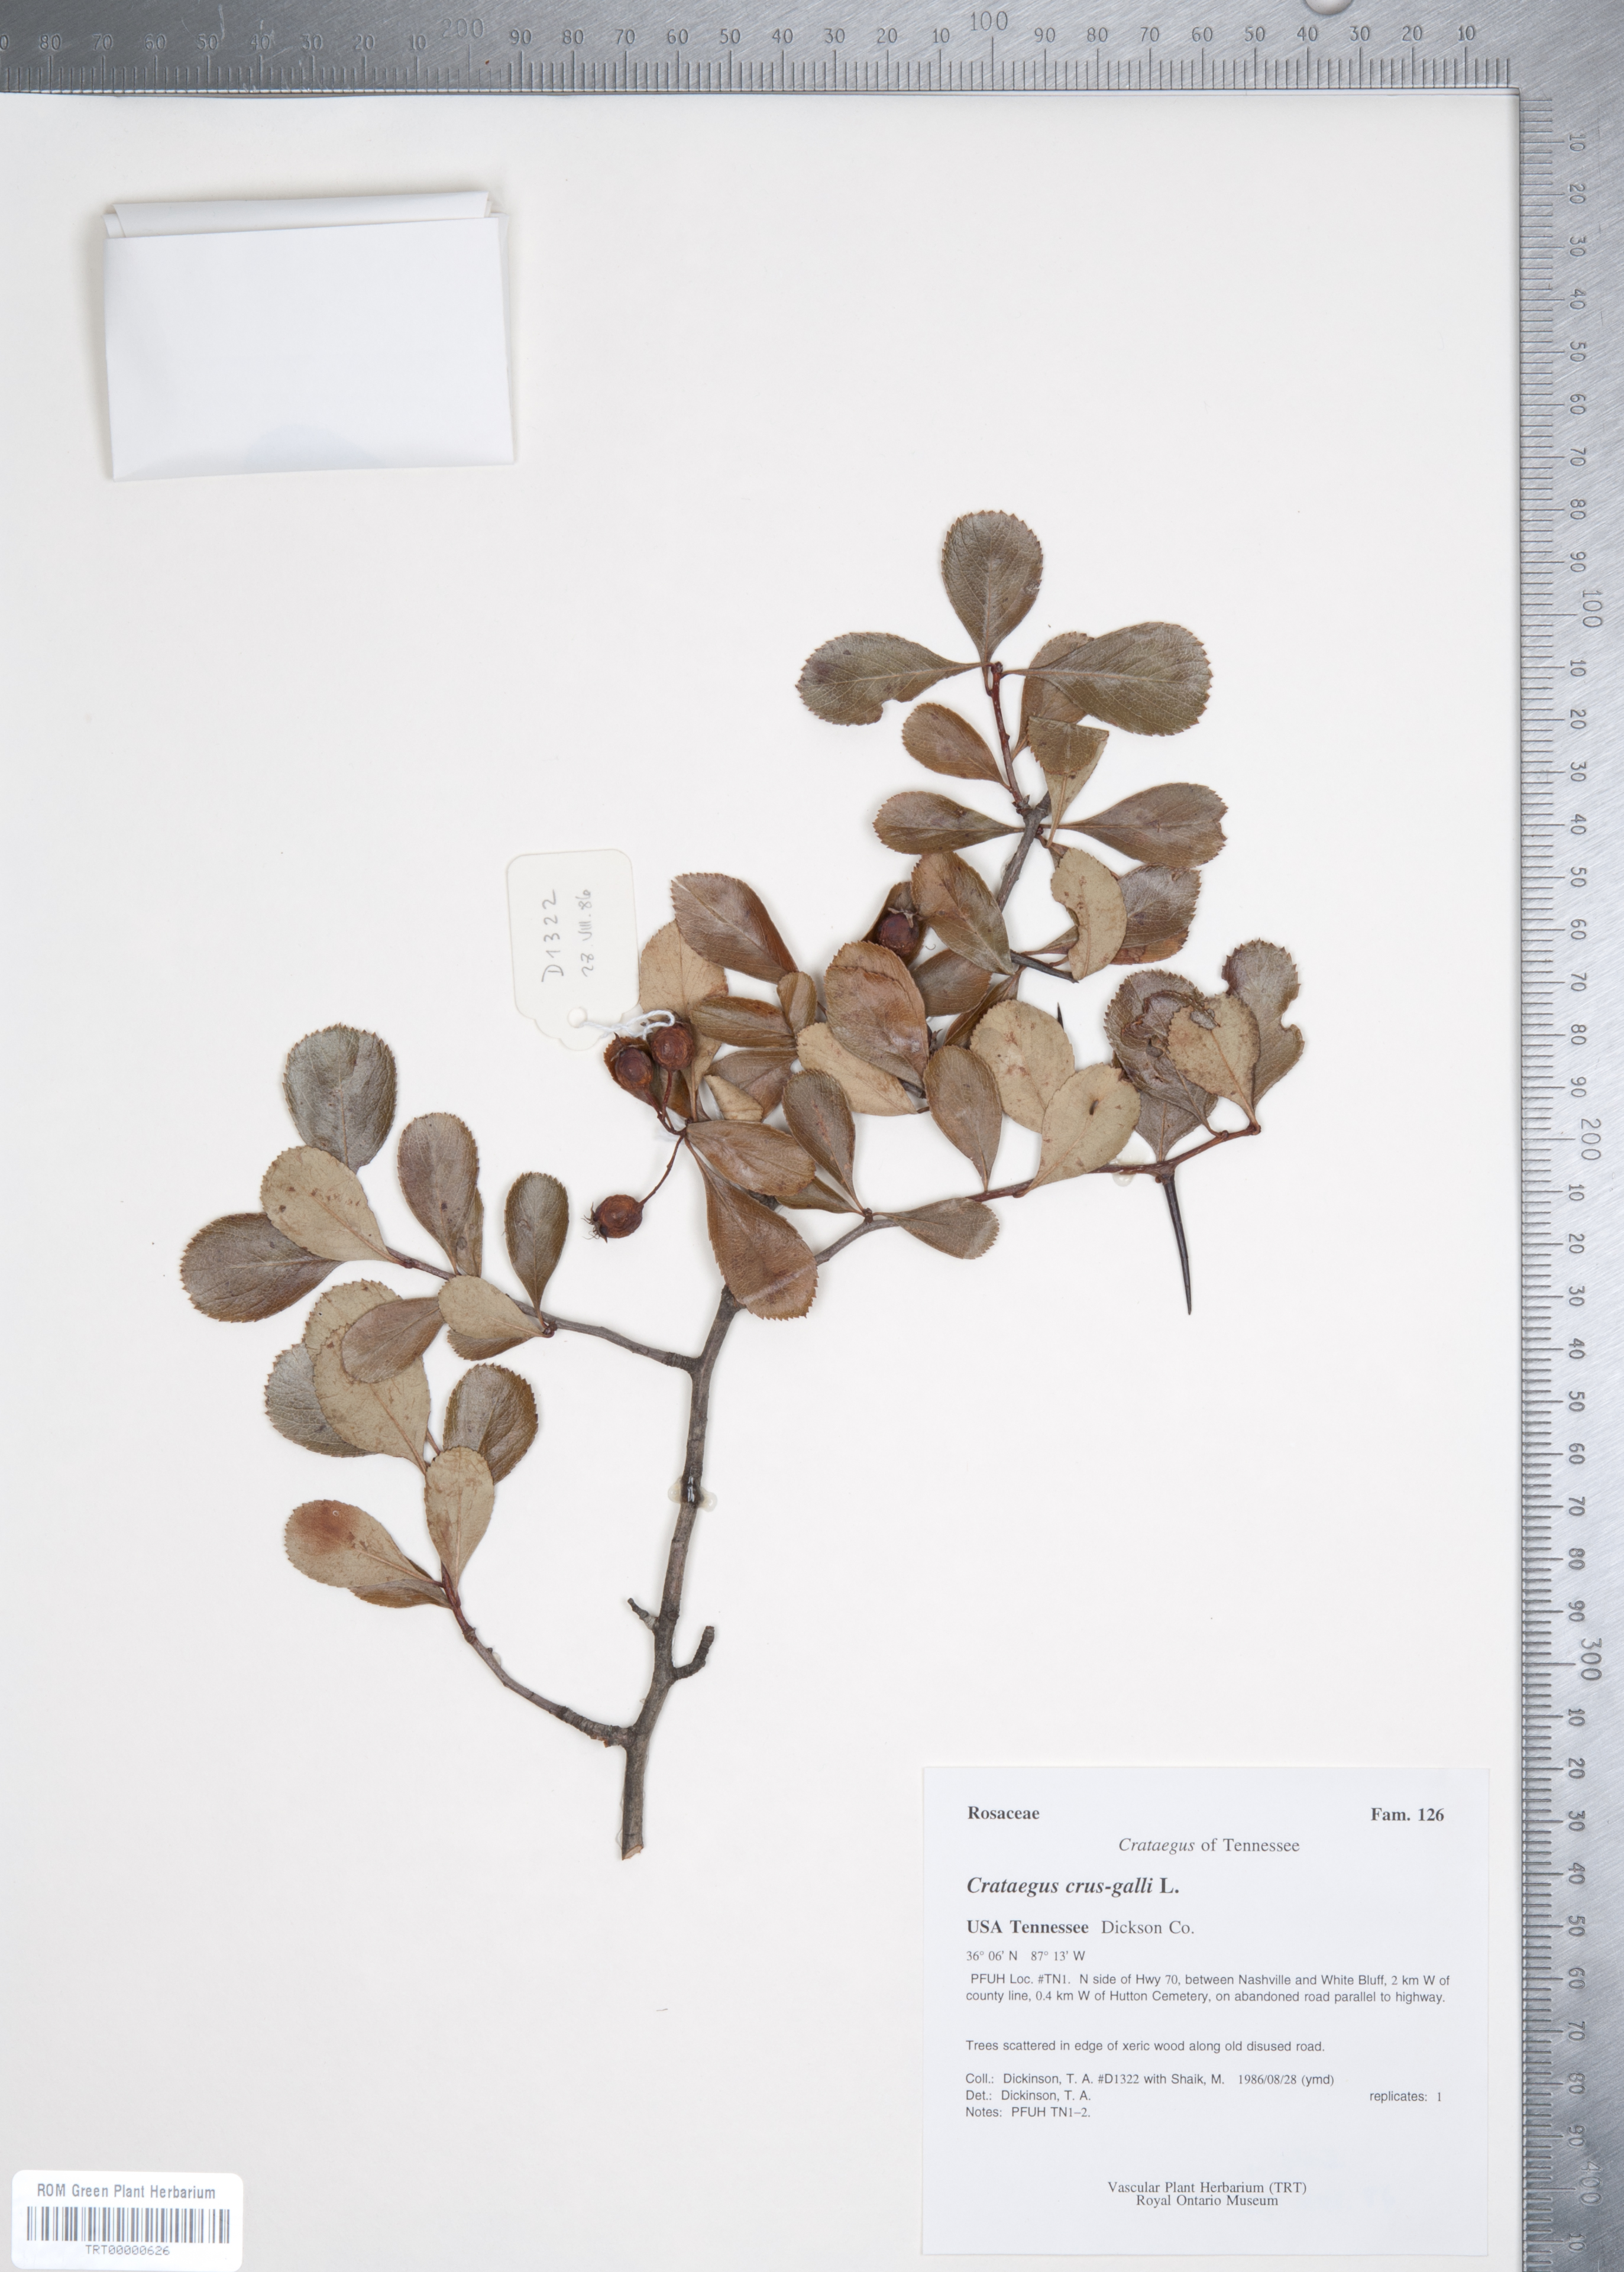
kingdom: Plantae
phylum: Tracheophyta
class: Magnoliopsida
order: Rosales
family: Rosaceae
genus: Crataegus
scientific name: Crataegus crus-galli
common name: Cockspurthorn
